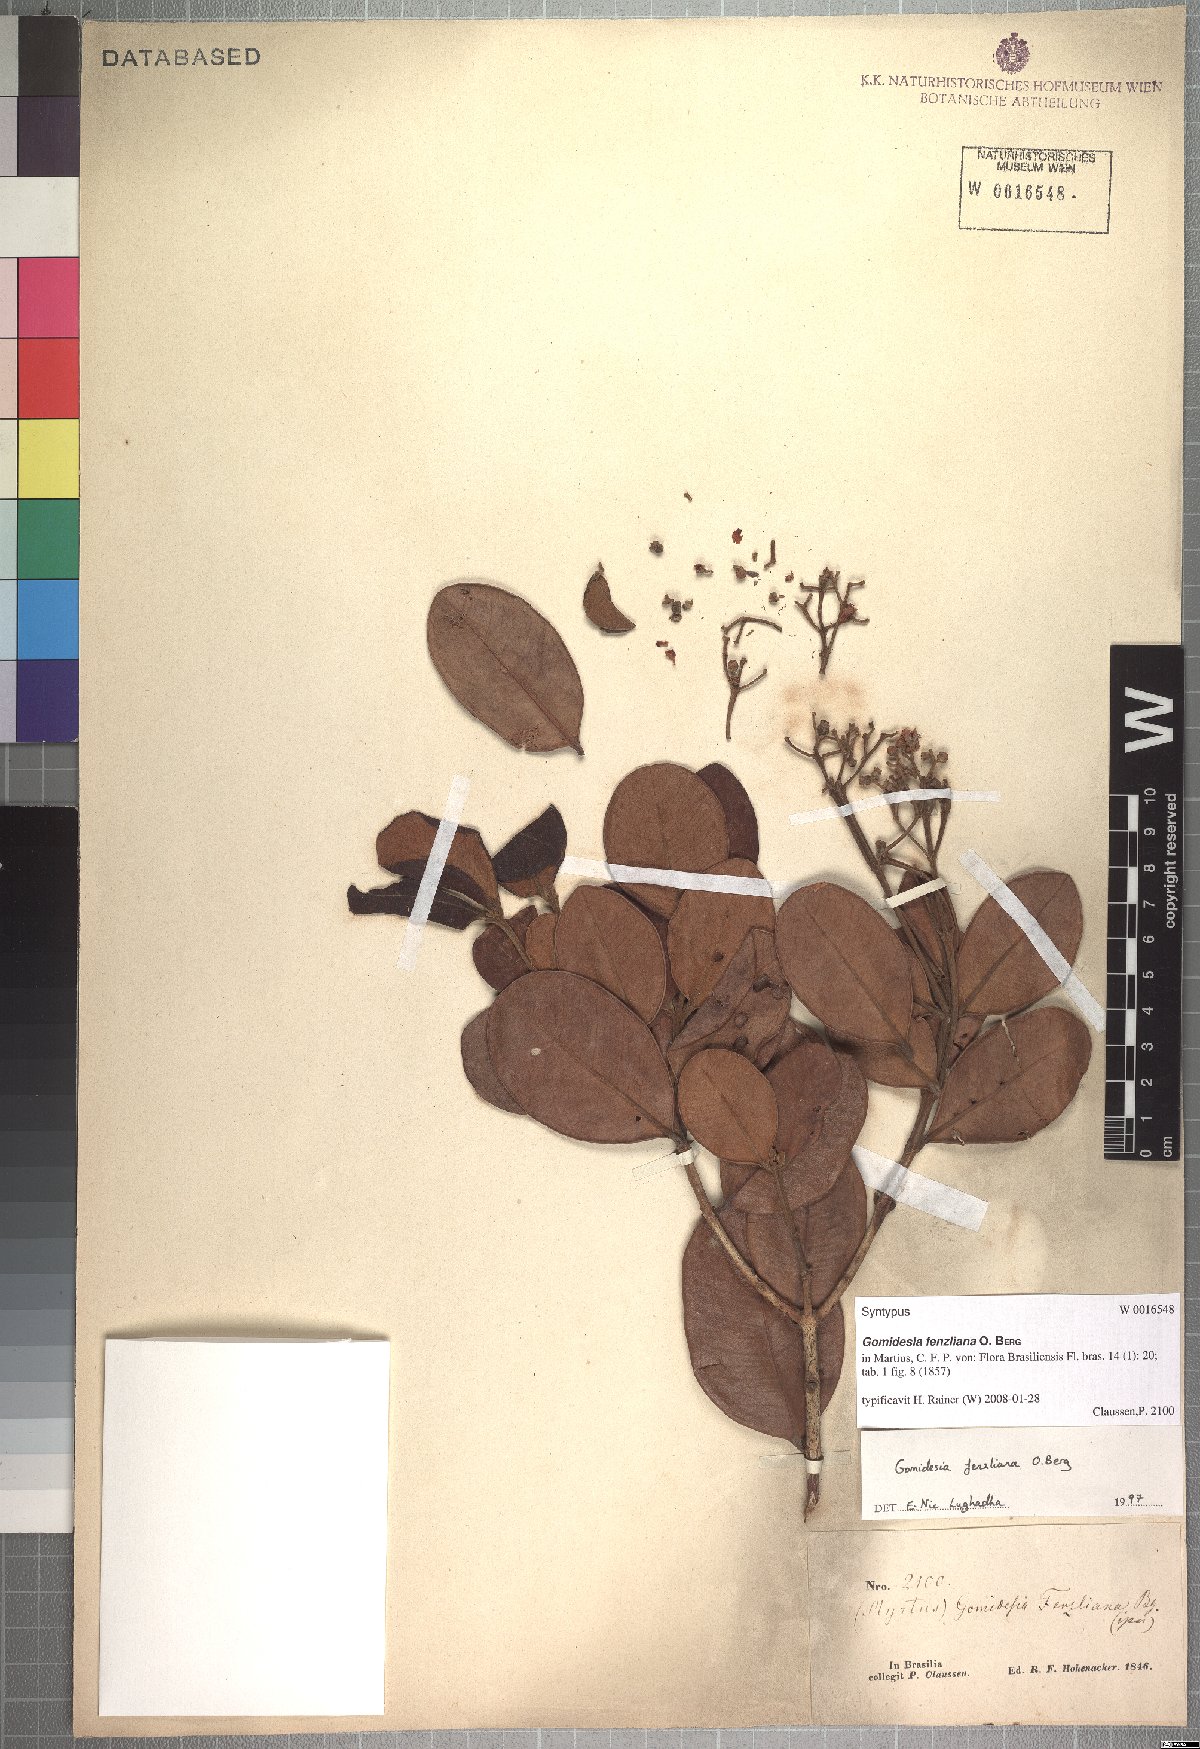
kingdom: Plantae
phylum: Tracheophyta
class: Magnoliopsida
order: Myrtales
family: Myrtaceae
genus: Myrcia
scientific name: Myrcia ilheosensis
